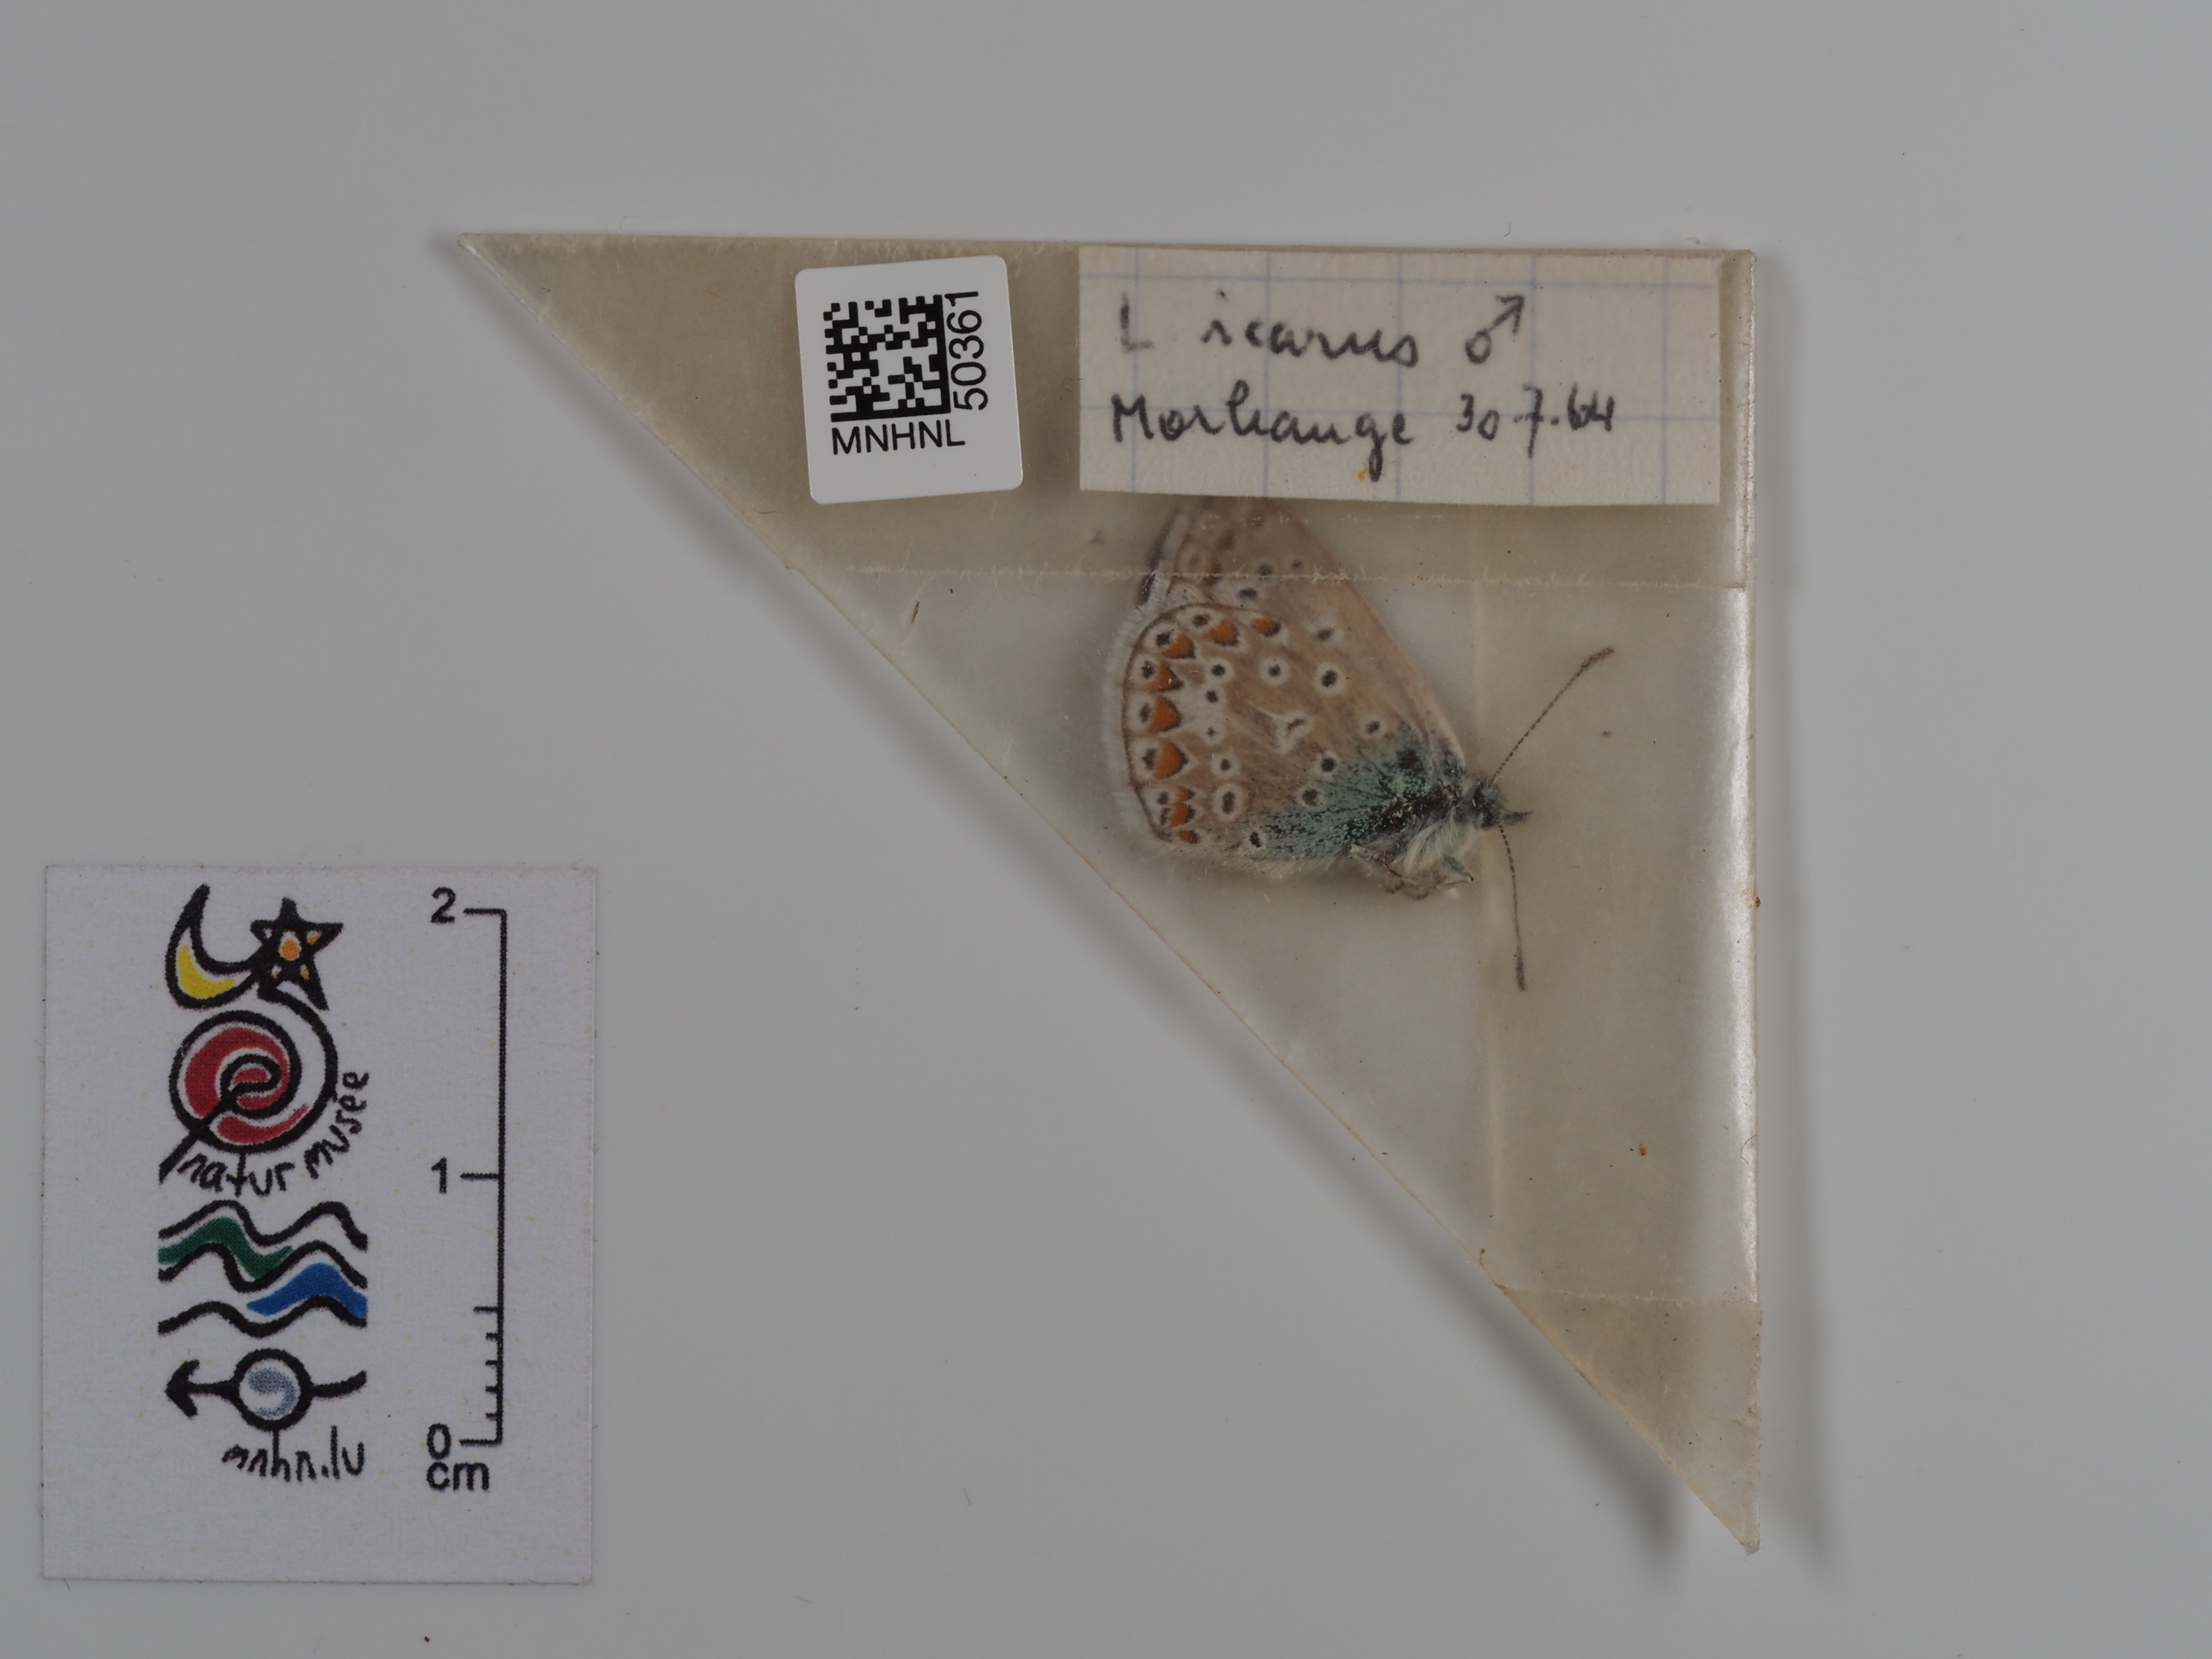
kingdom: Animalia
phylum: Arthropoda
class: Insecta
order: Lepidoptera
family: Lycaenidae
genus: Polyommatus
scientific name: Polyommatus icarus
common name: Common blue
